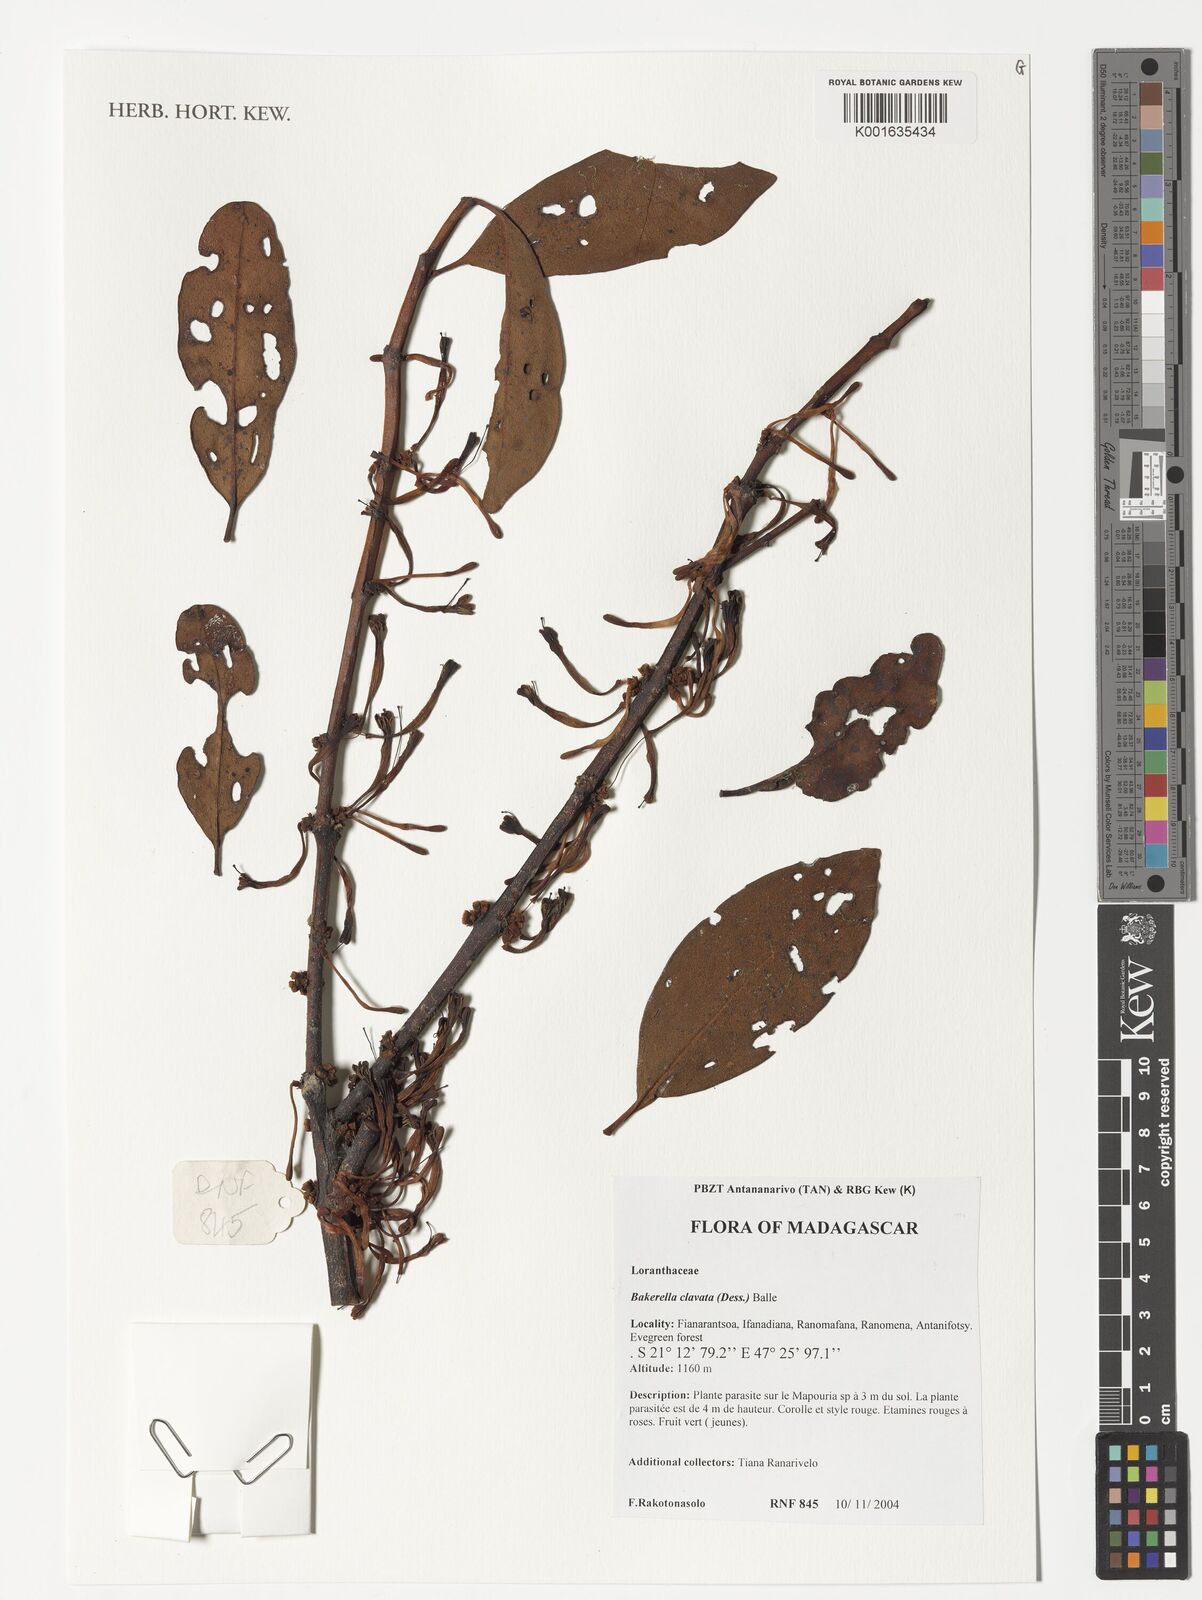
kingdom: Plantae
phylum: Tracheophyta
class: Magnoliopsida
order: Santalales
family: Loranthaceae
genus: Bakerella
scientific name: Bakerella clavata
